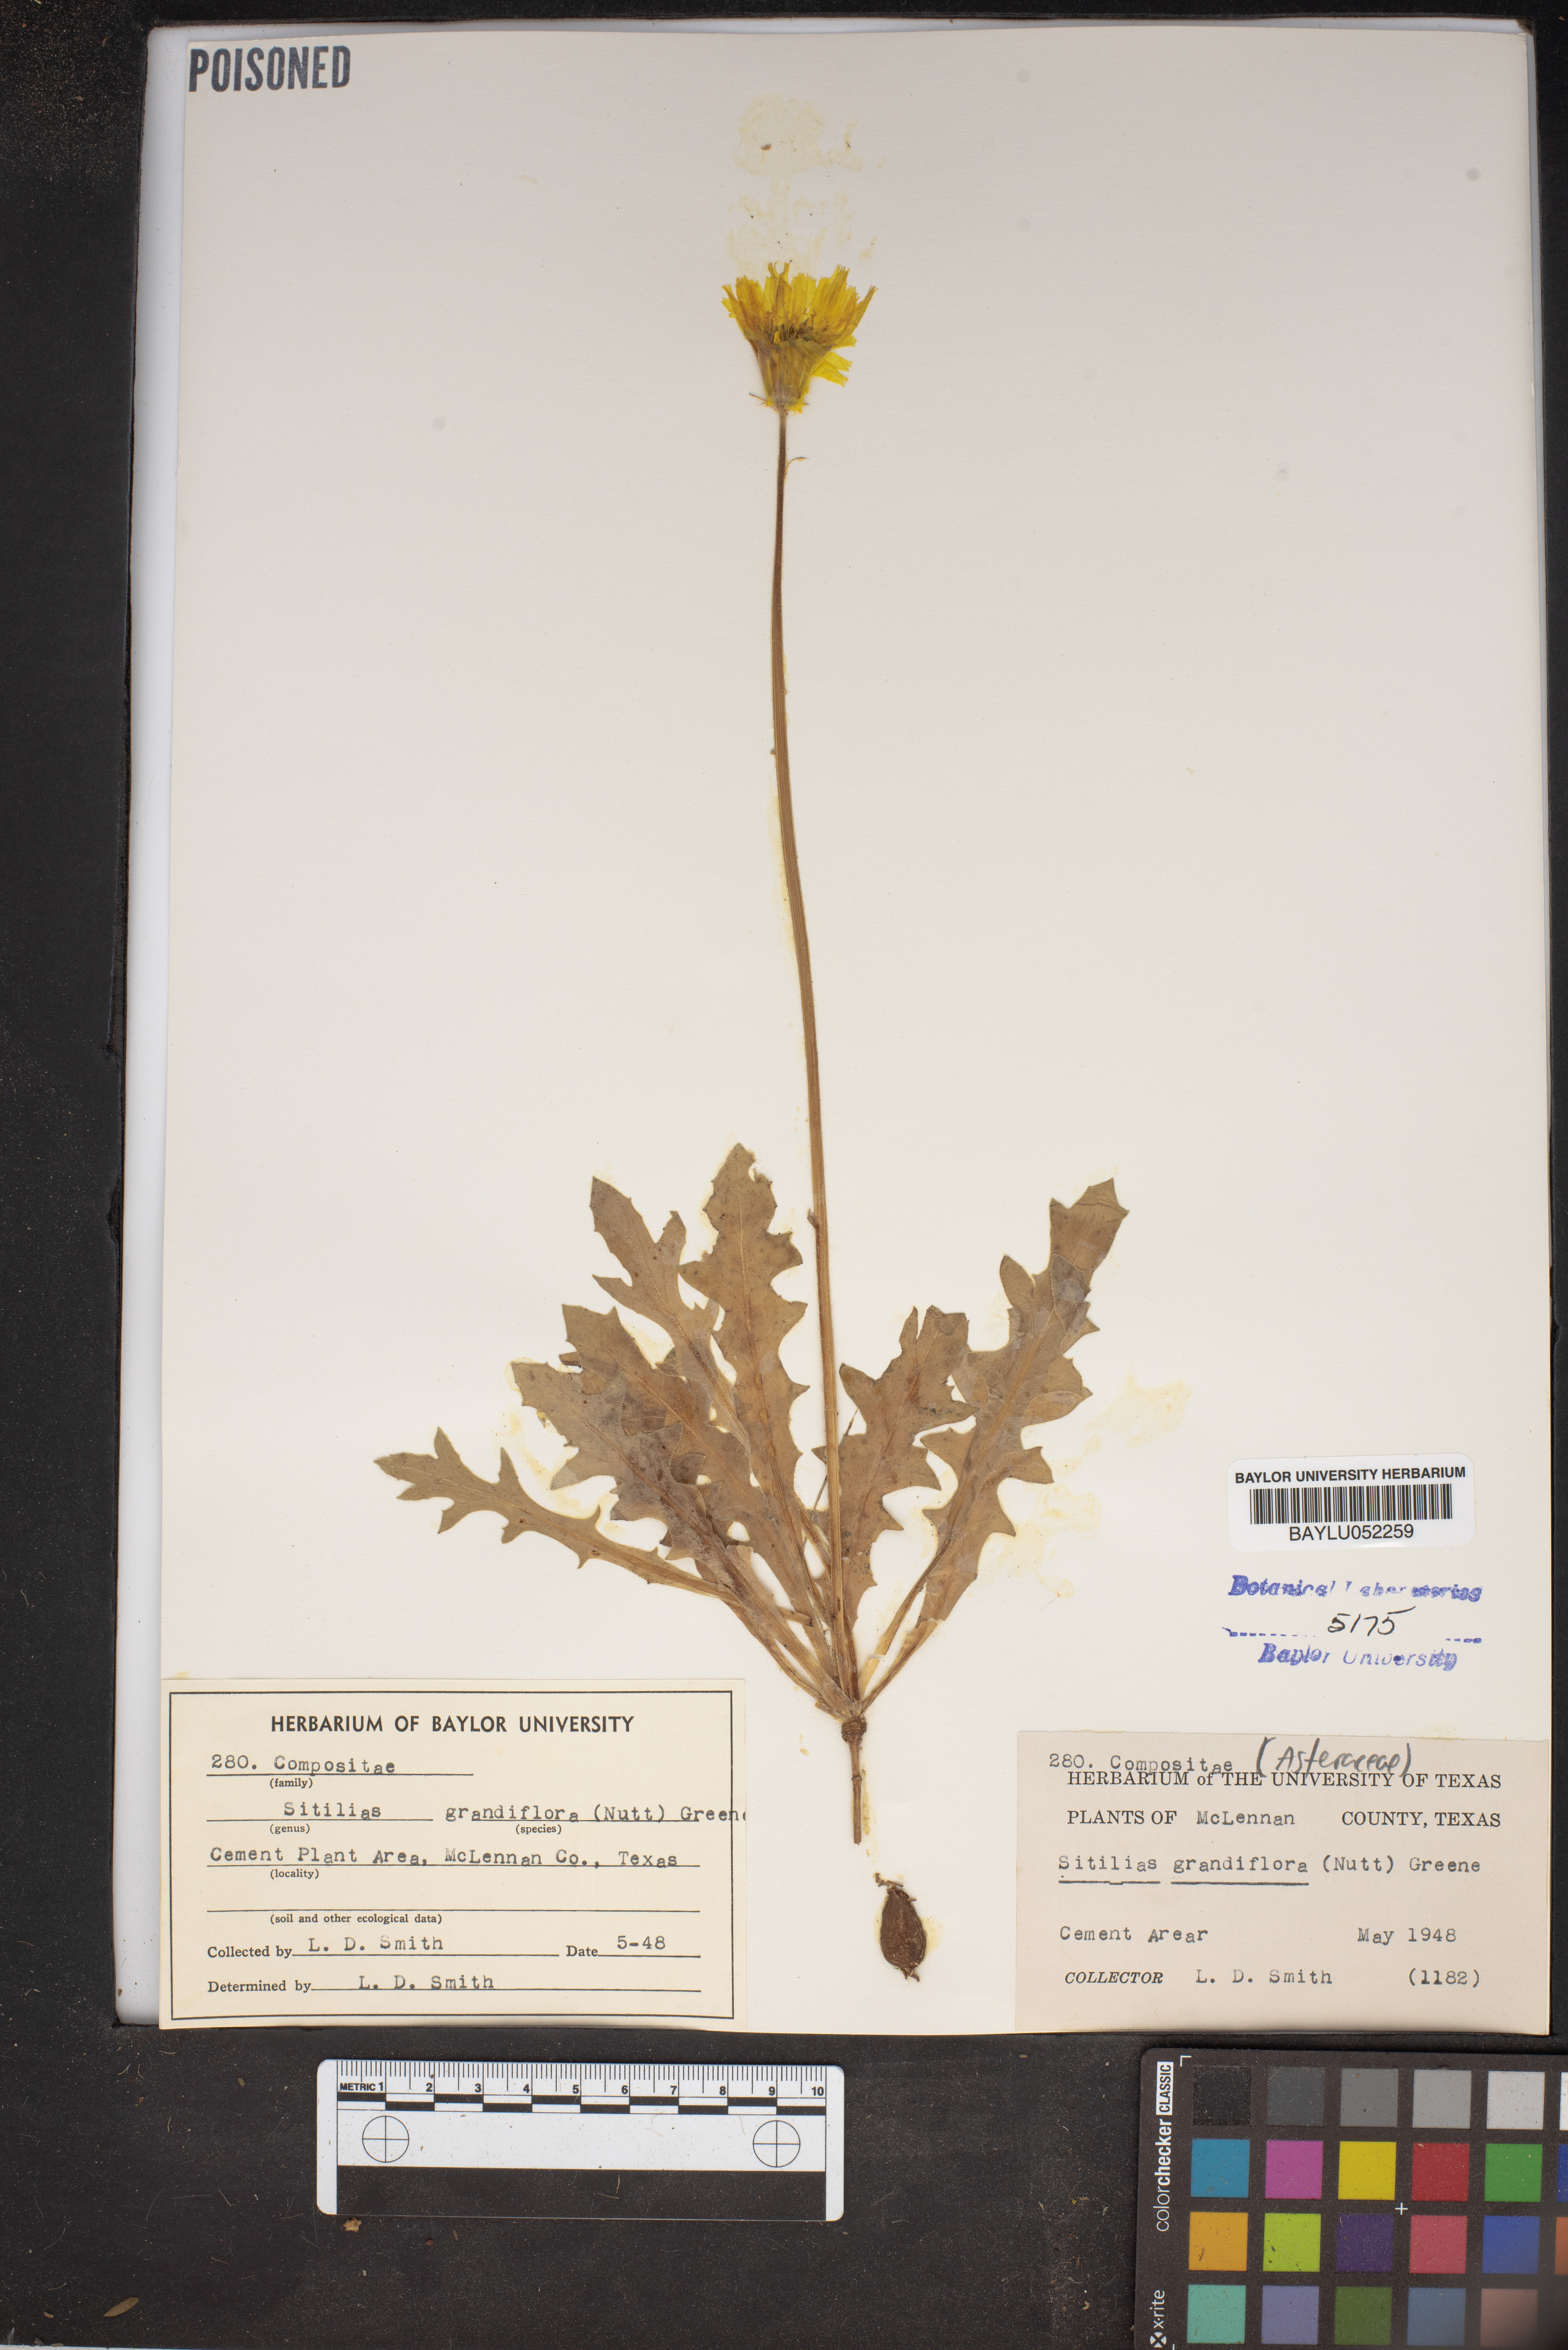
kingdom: Plantae
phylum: Tracheophyta
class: Magnoliopsida
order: Asterales
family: Asteraceae
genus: Pyrrhopappus
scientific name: Pyrrhopappus grandiflorus
